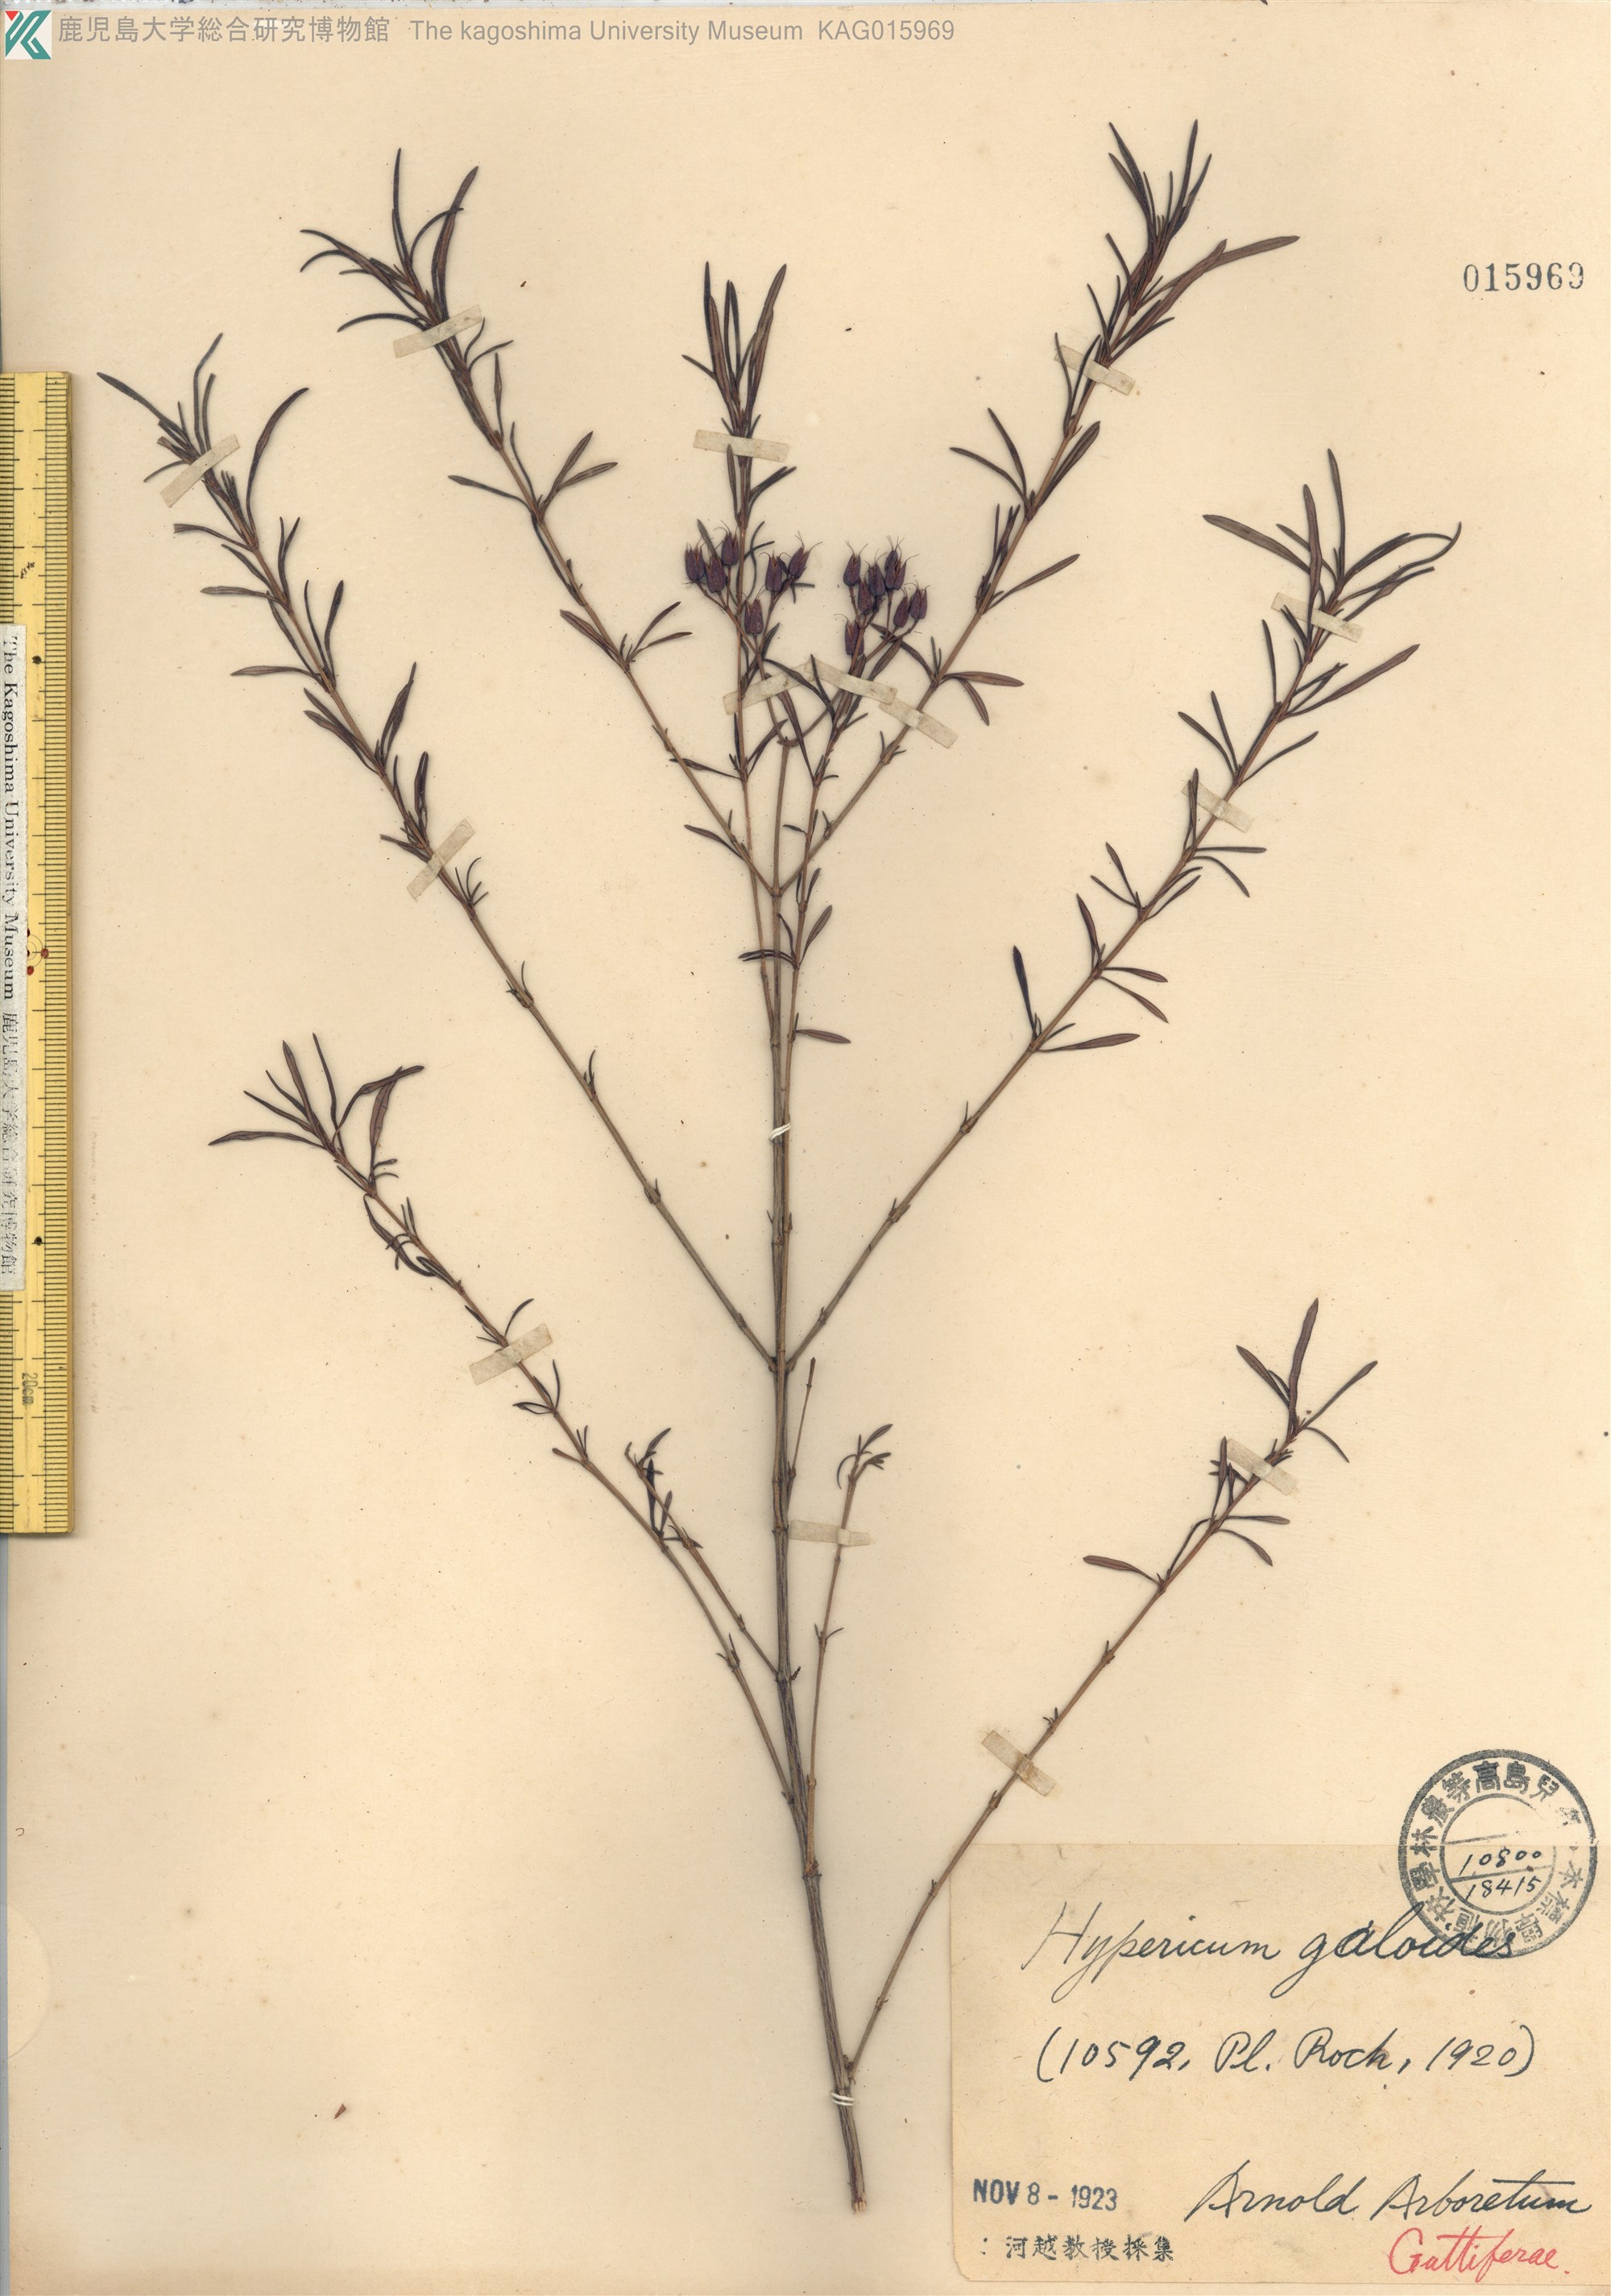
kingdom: Plantae
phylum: Tracheophyta
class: Magnoliopsida
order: Malpighiales
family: Hypericaceae
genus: Hypericum
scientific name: Hypericum galioides
